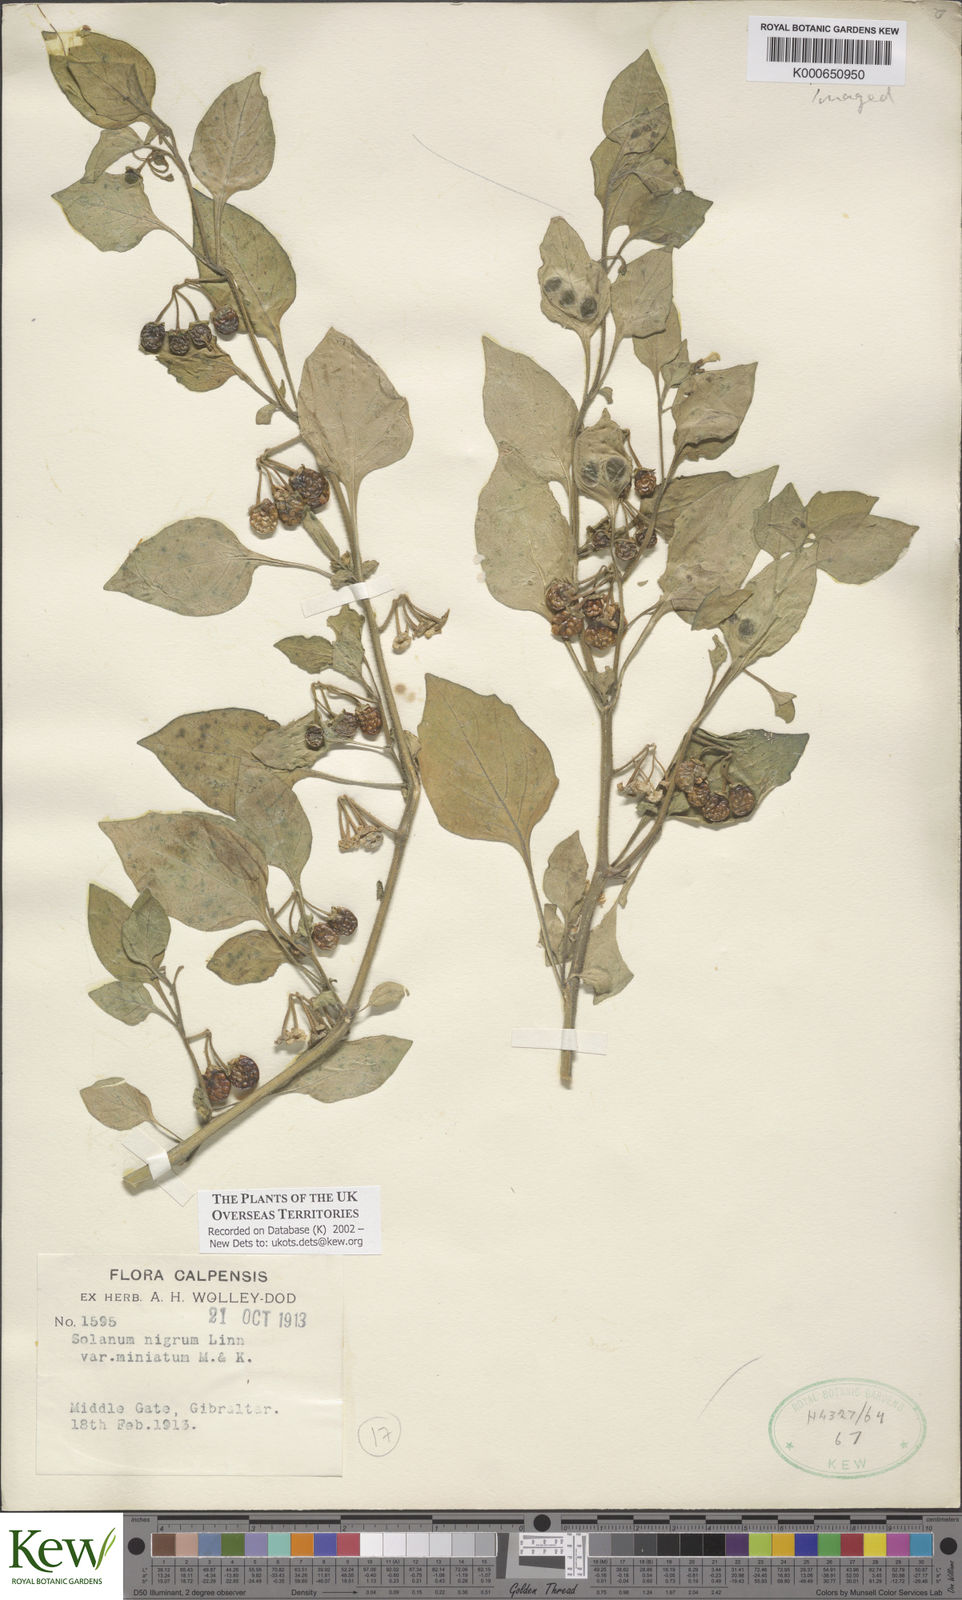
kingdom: Plantae
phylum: Tracheophyta
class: Magnoliopsida
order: Solanales
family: Solanaceae
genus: Solanum
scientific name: Solanum alatum
